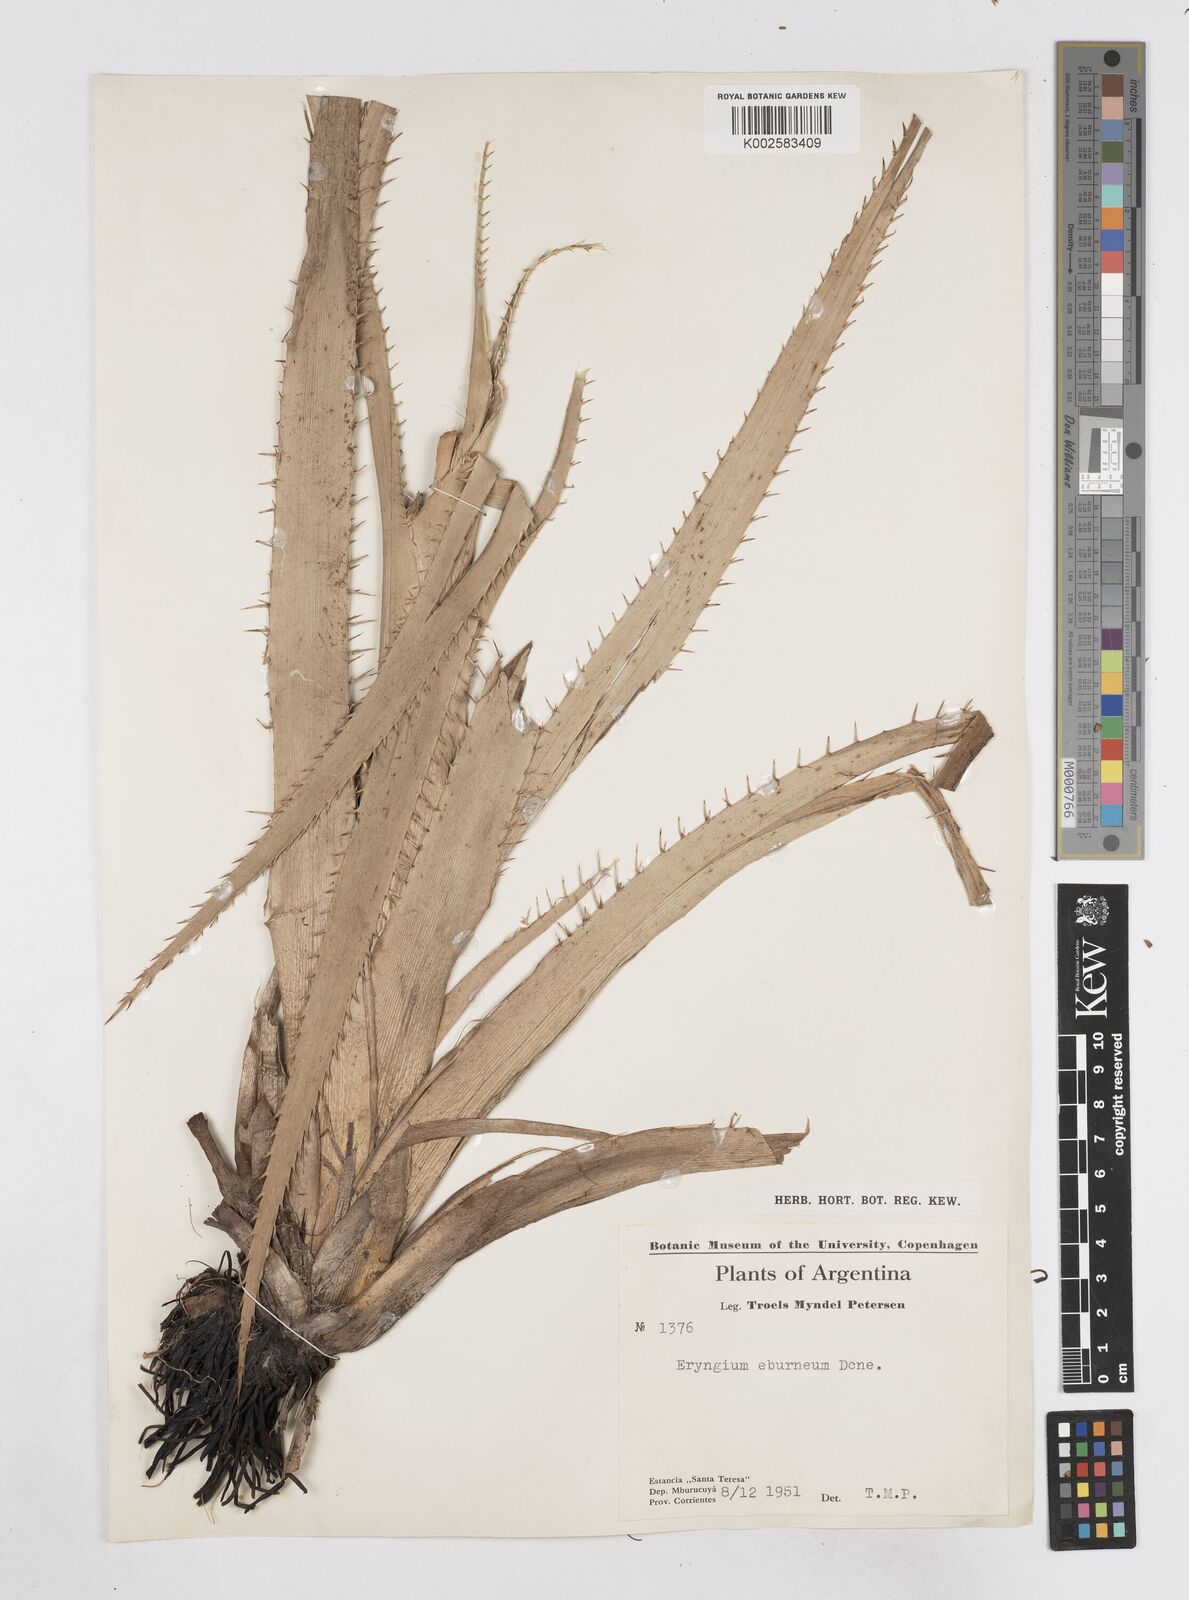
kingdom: Plantae
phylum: Tracheophyta
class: Magnoliopsida
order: Apiales
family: Apiaceae
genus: Eryngium
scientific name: Eryngium eburneum
